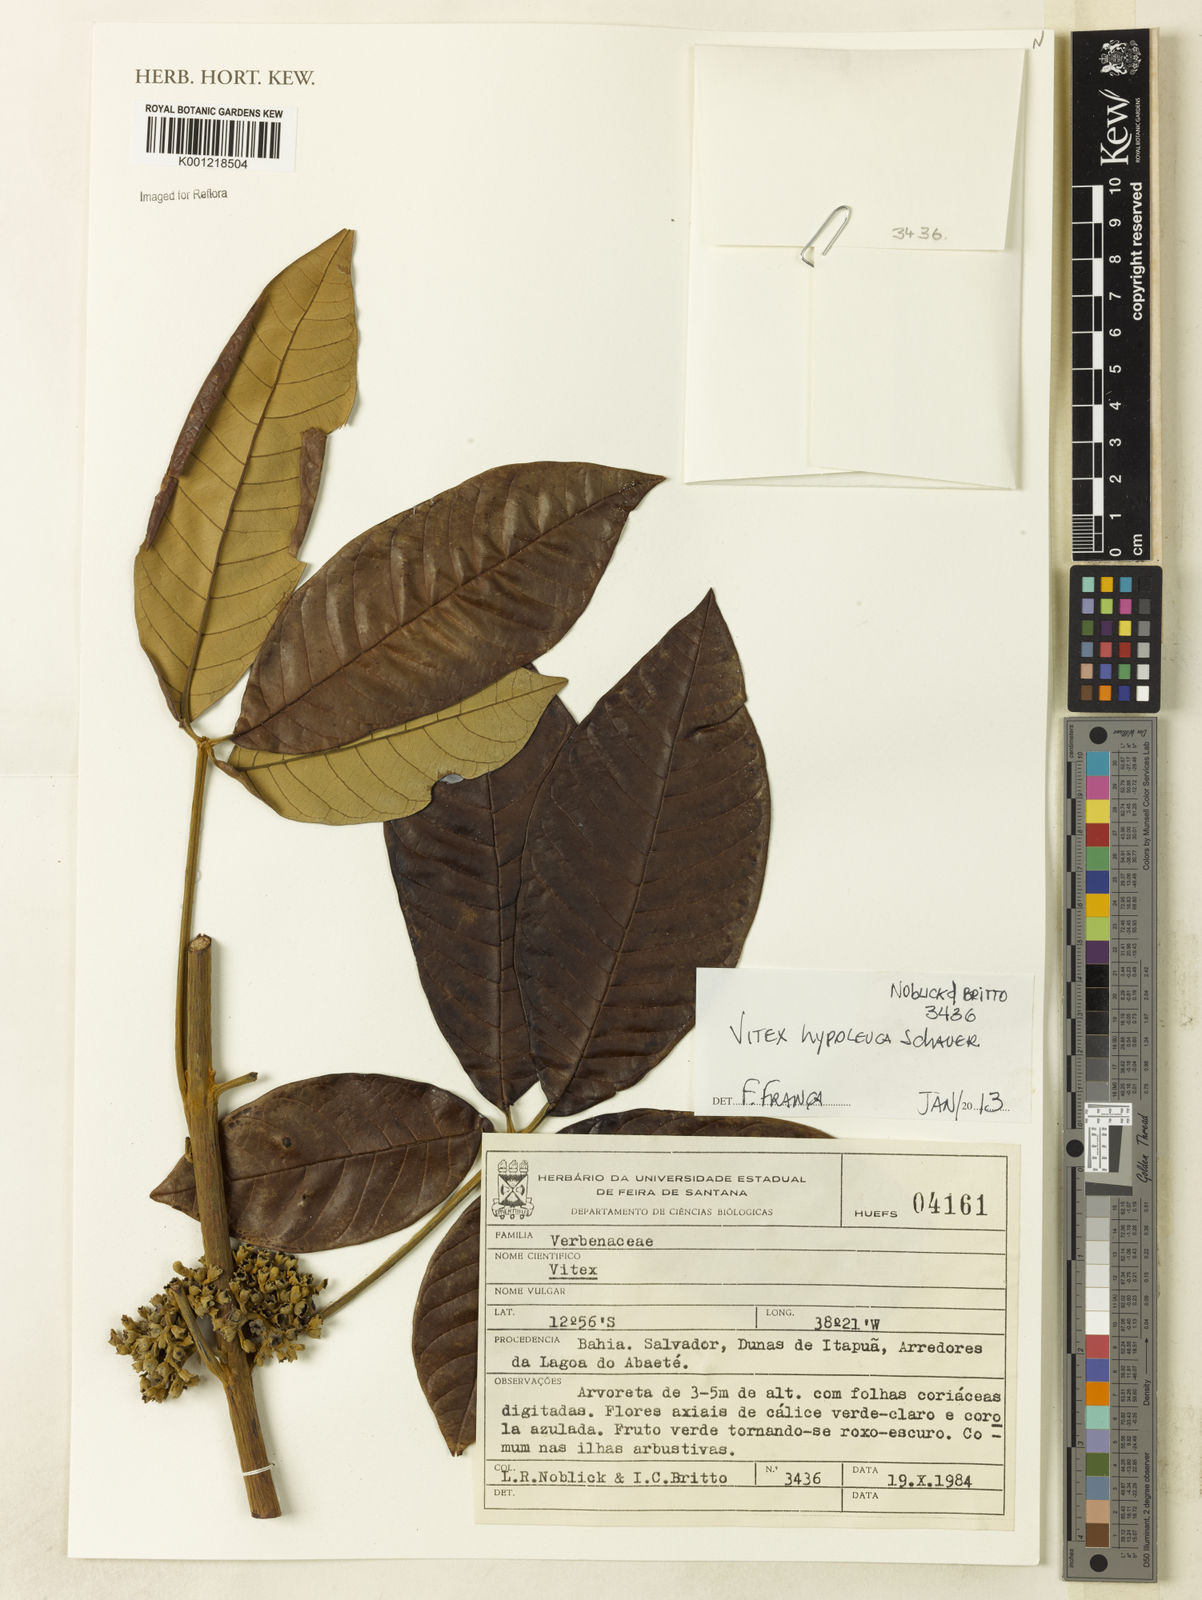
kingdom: Plantae
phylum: Tracheophyta
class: Magnoliopsida
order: Lamiales
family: Lamiaceae
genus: Vitex
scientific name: Vitex hypoleuca
